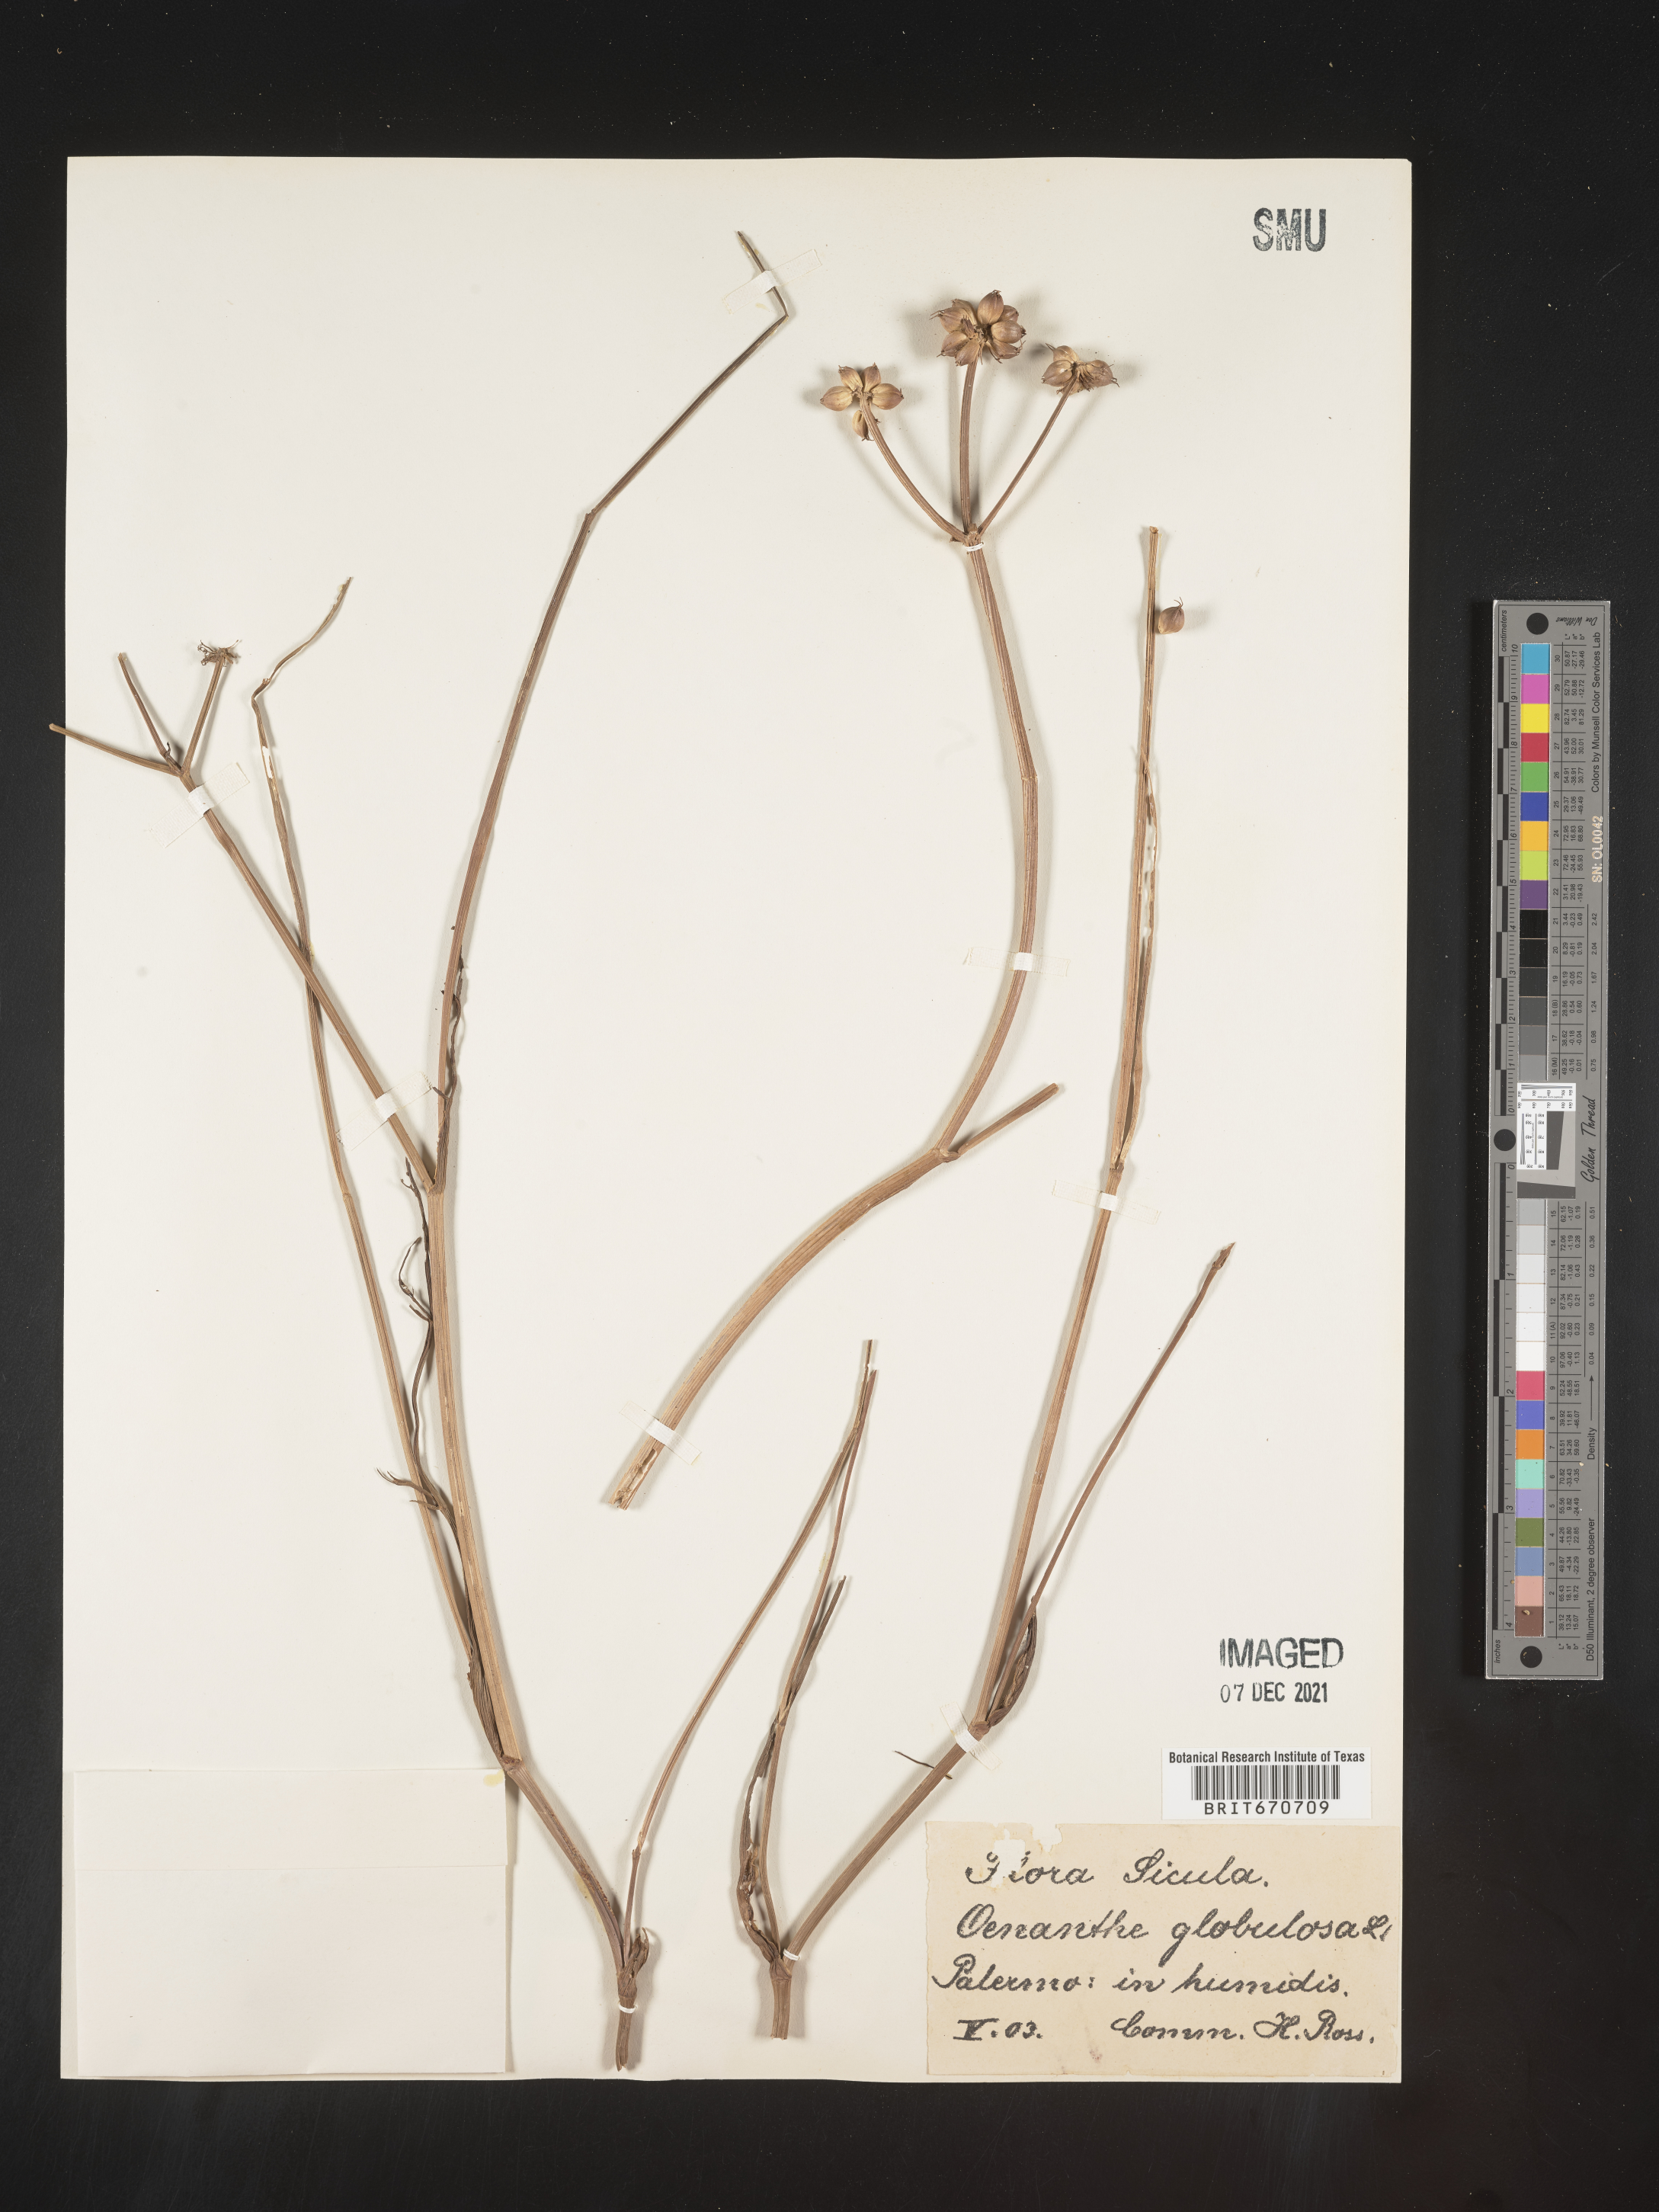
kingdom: Plantae
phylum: Tracheophyta
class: Magnoliopsida
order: Apiales
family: Apiaceae
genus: Oenanthe
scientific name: Oenanthe
